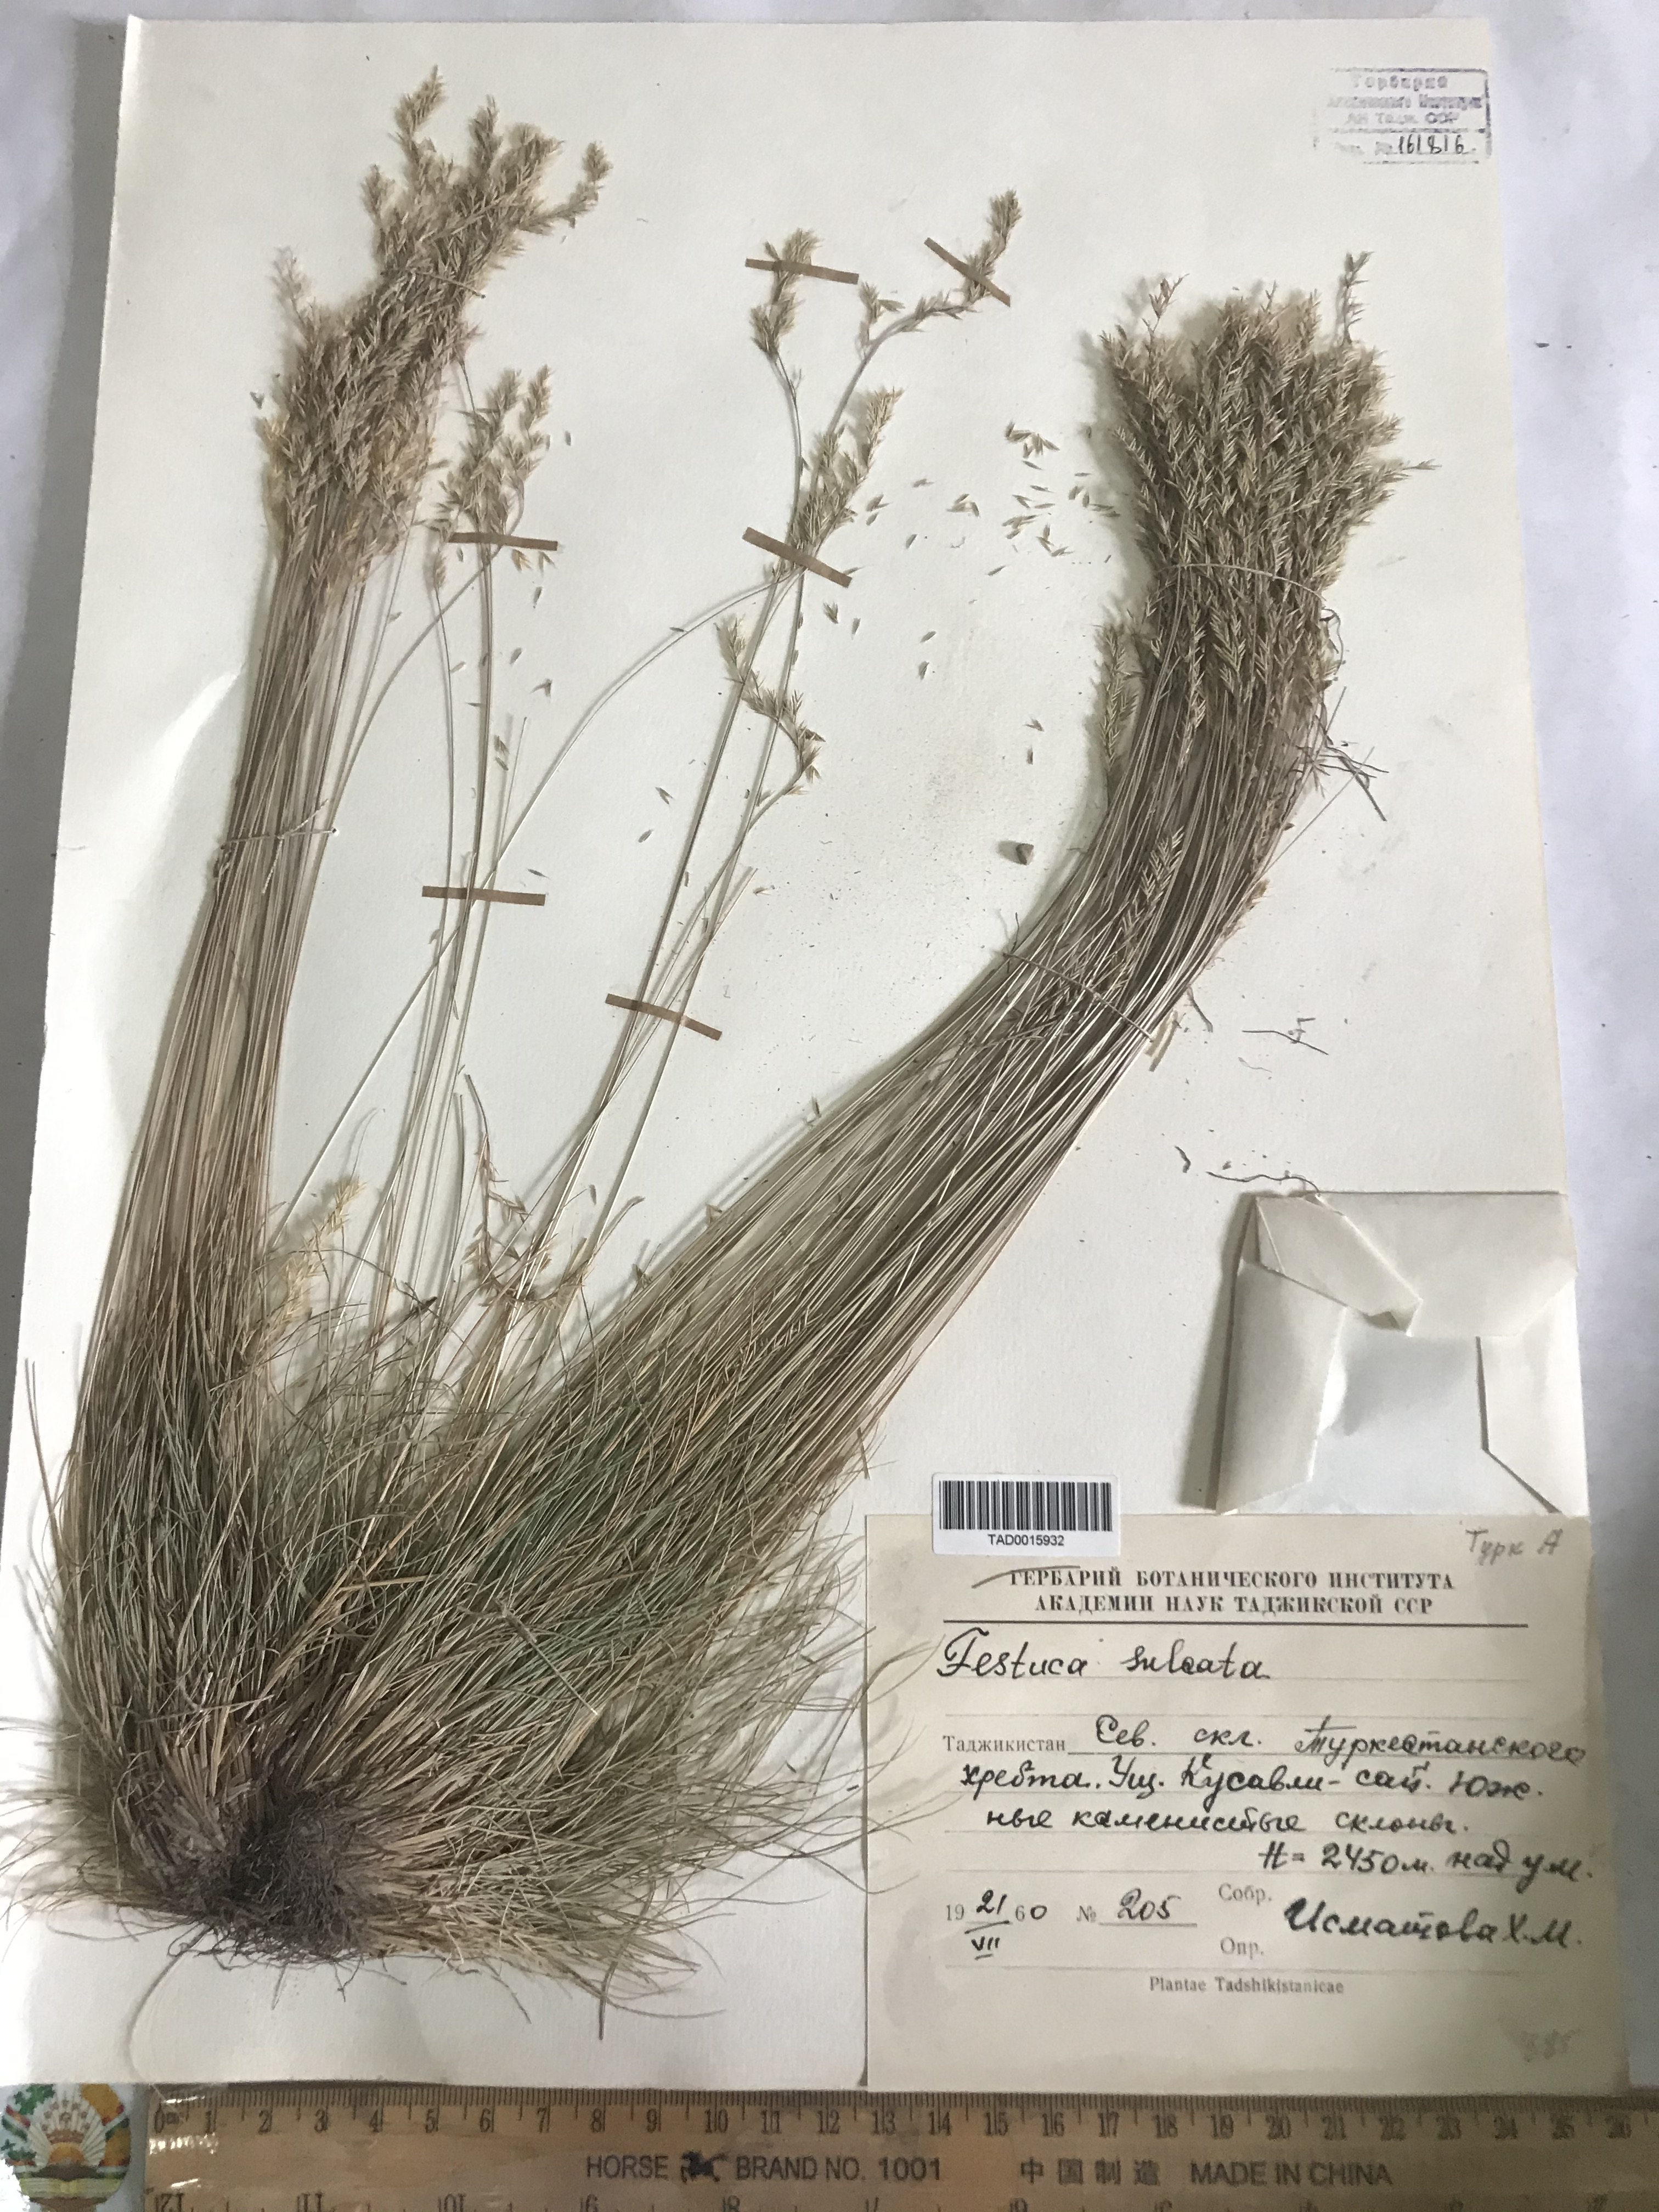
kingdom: Plantae
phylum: Tracheophyta
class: Liliopsida
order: Poales
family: Poaceae
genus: Festuca
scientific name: Festuca sulcata
